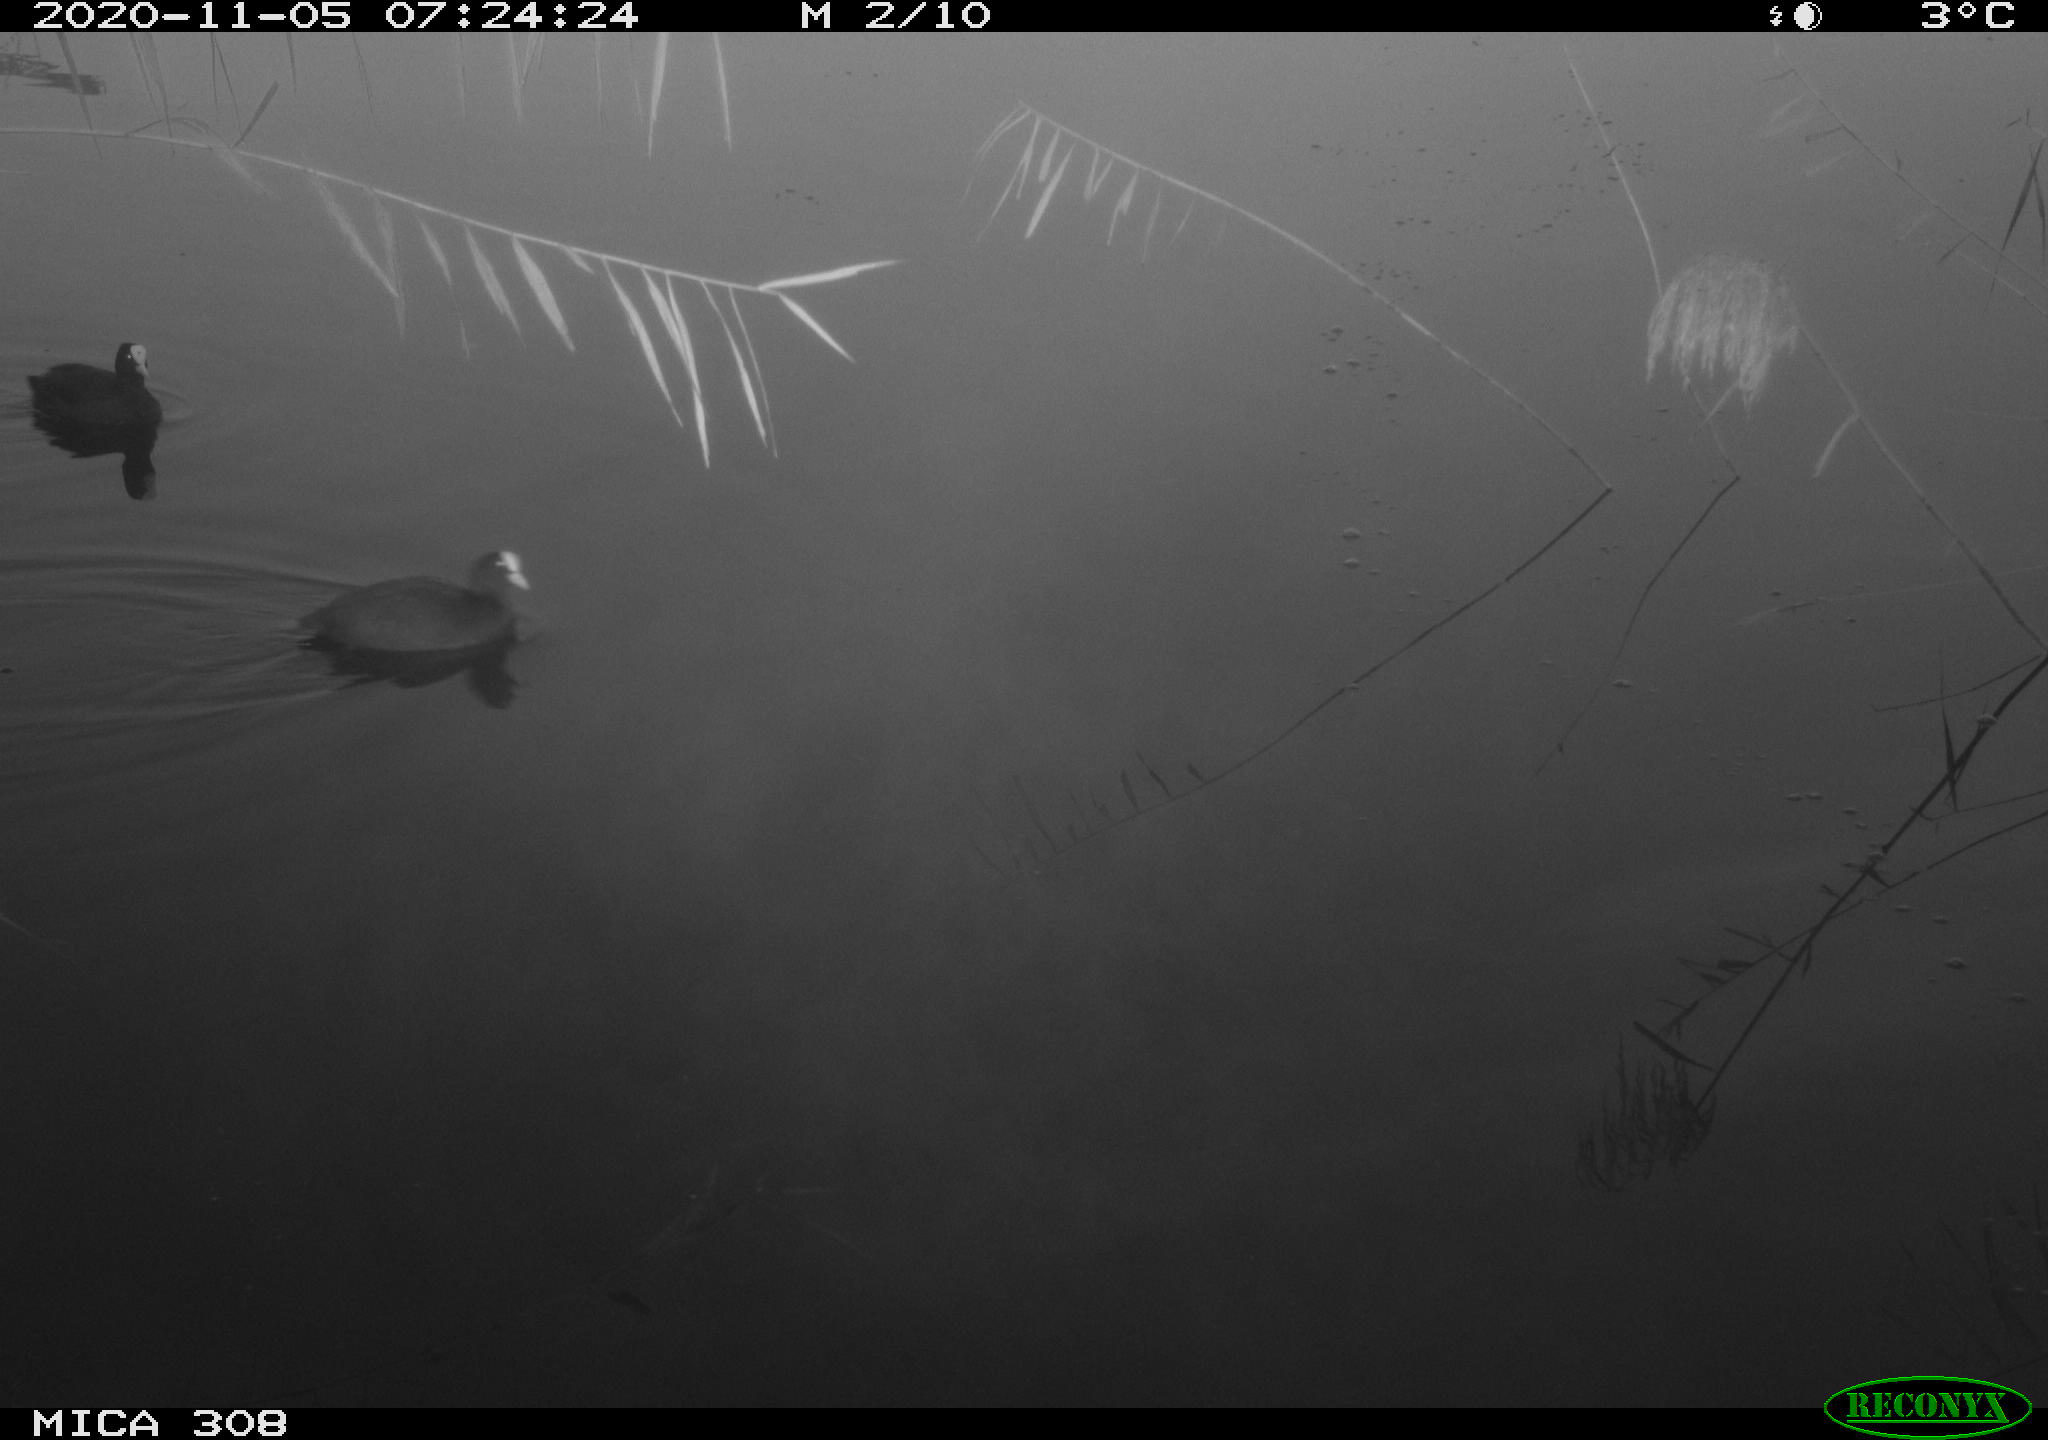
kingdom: Animalia
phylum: Chordata
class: Aves
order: Gruiformes
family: Rallidae
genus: Fulica
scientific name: Fulica atra
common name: Eurasian coot
